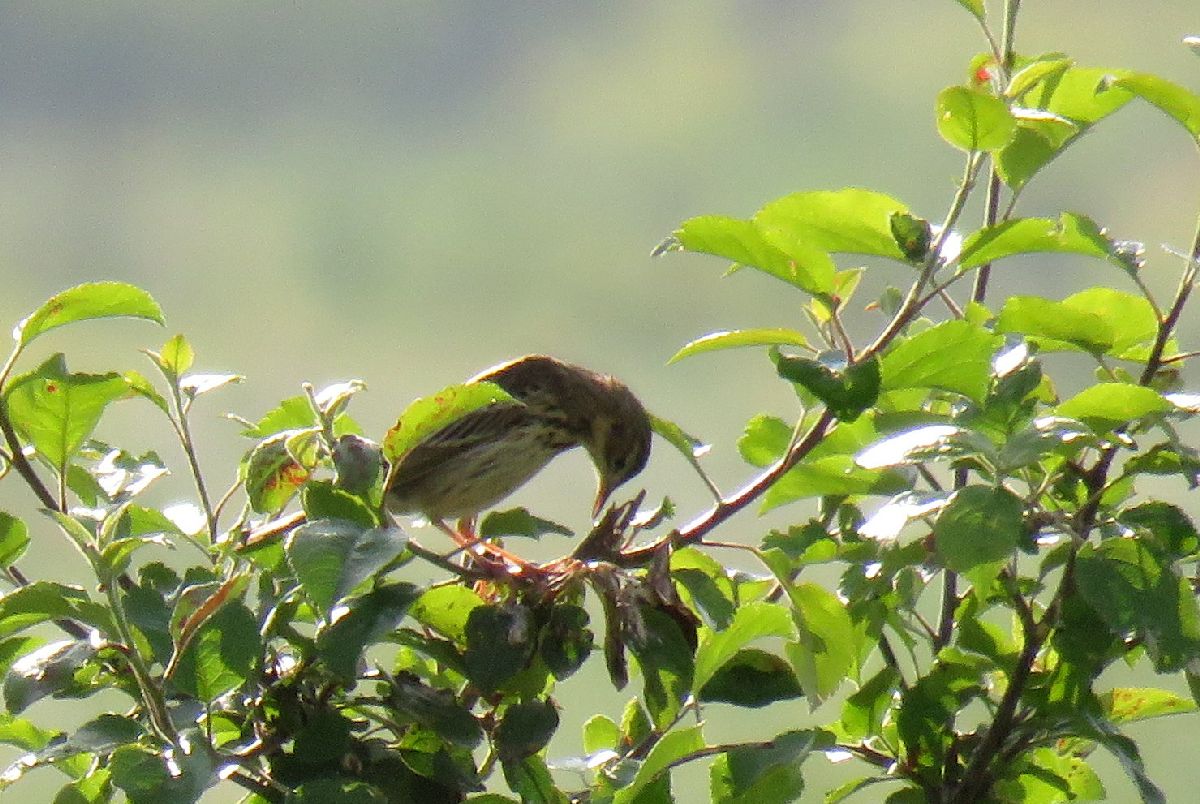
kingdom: Animalia
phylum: Chordata
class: Aves
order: Passeriformes
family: Motacillidae
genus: Anthus
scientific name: Anthus trivialis
